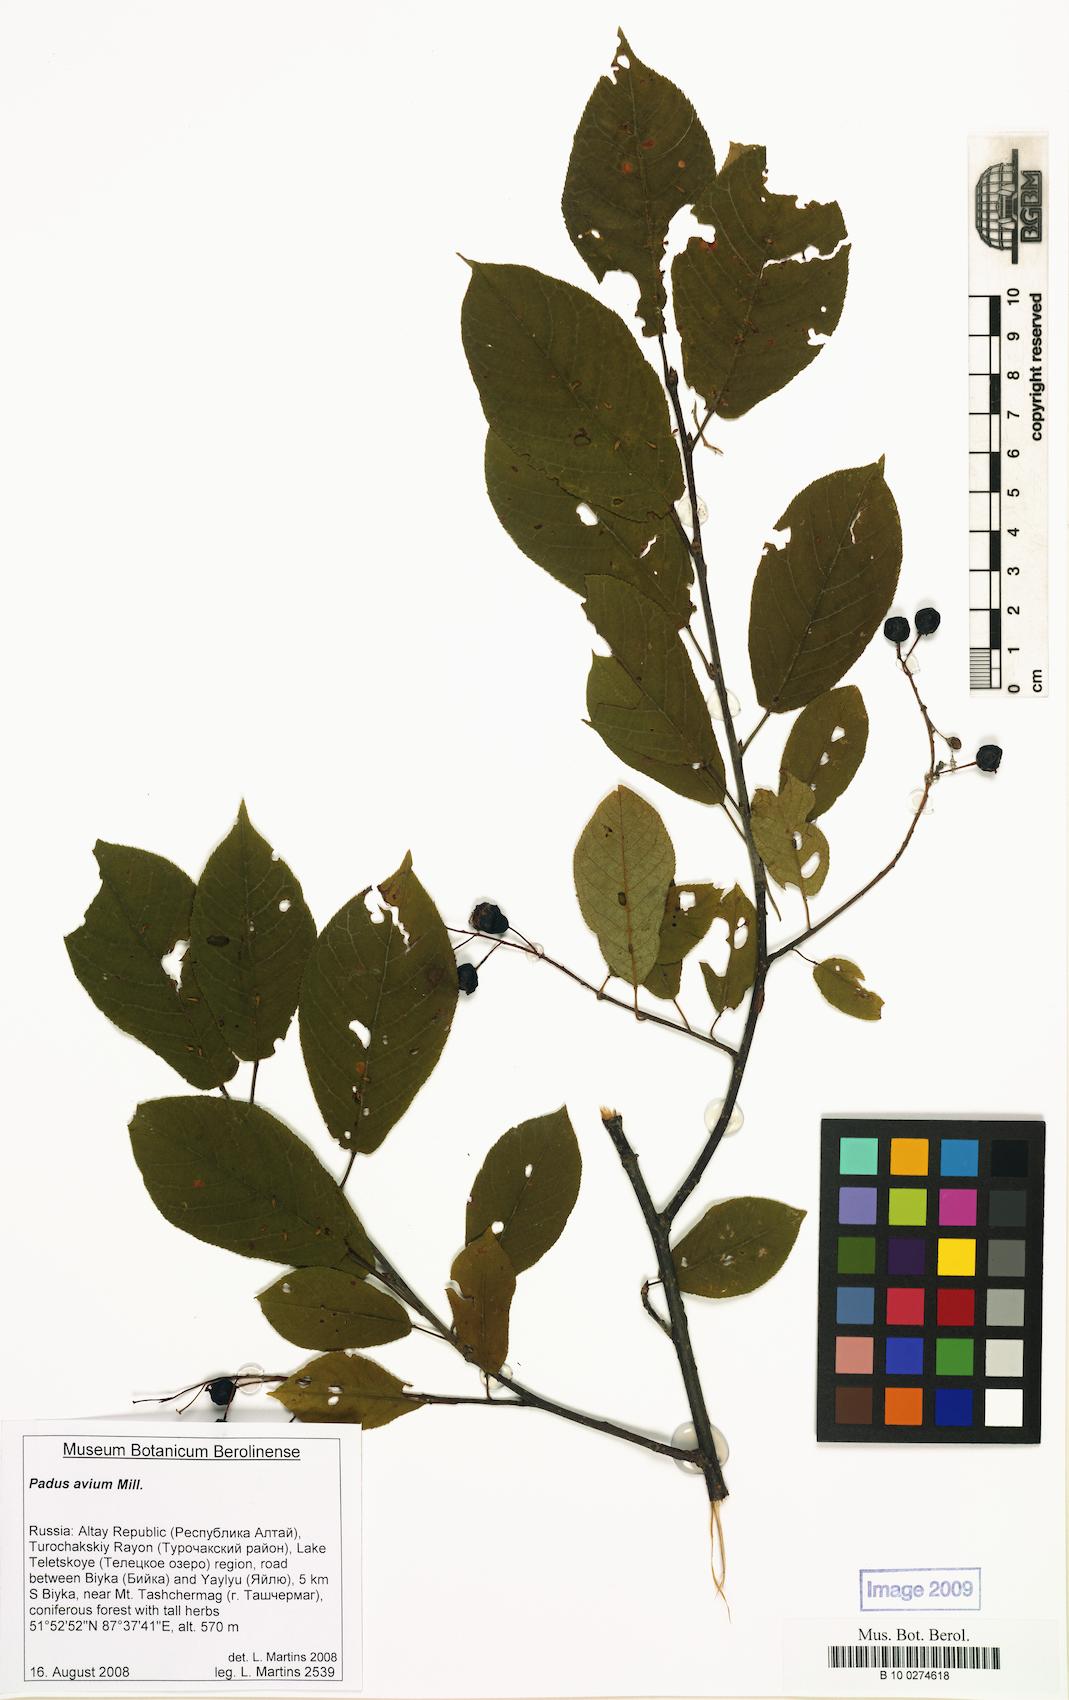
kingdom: Plantae
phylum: Tracheophyta
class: Magnoliopsida
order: Rosales
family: Rosaceae
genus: Prunus
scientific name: Prunus padus
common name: Bird cherry
